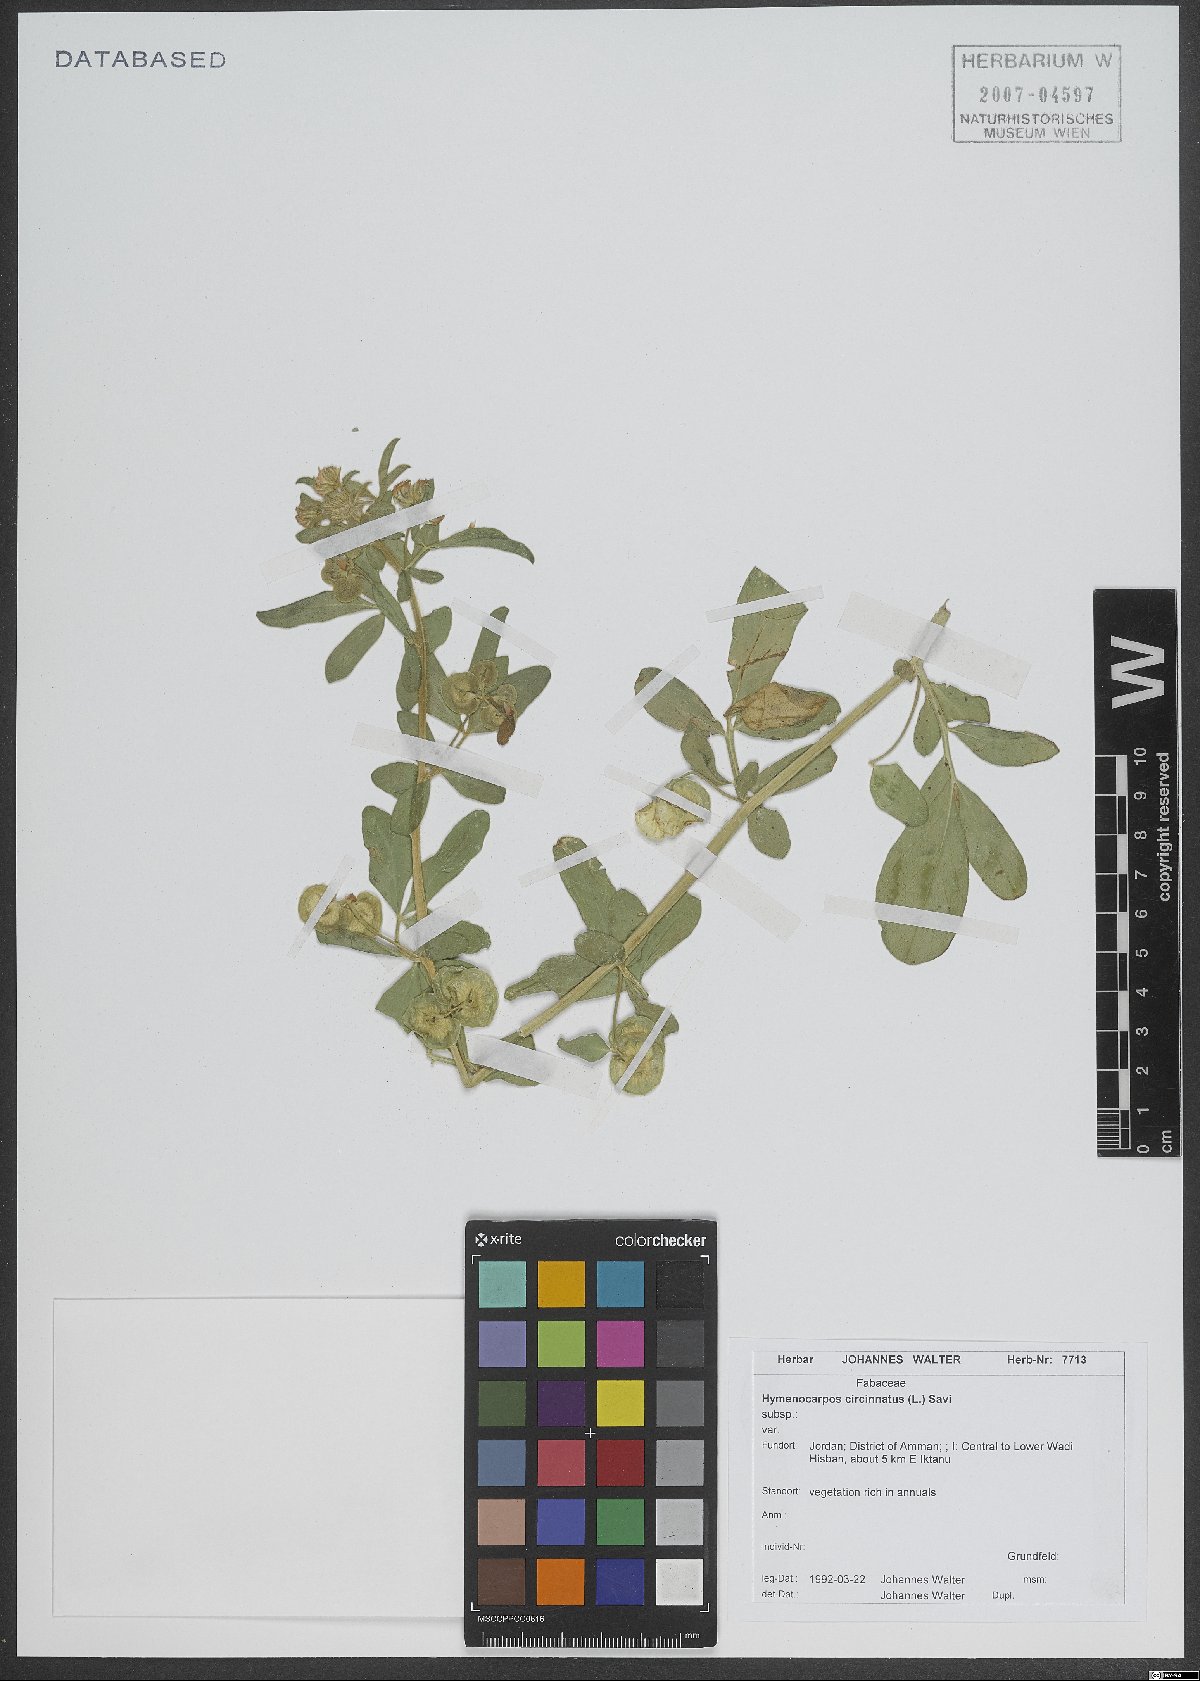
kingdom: Plantae
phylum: Tracheophyta
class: Magnoliopsida
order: Fabales
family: Fabaceae
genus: Anthyllis
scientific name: Anthyllis circinnata
